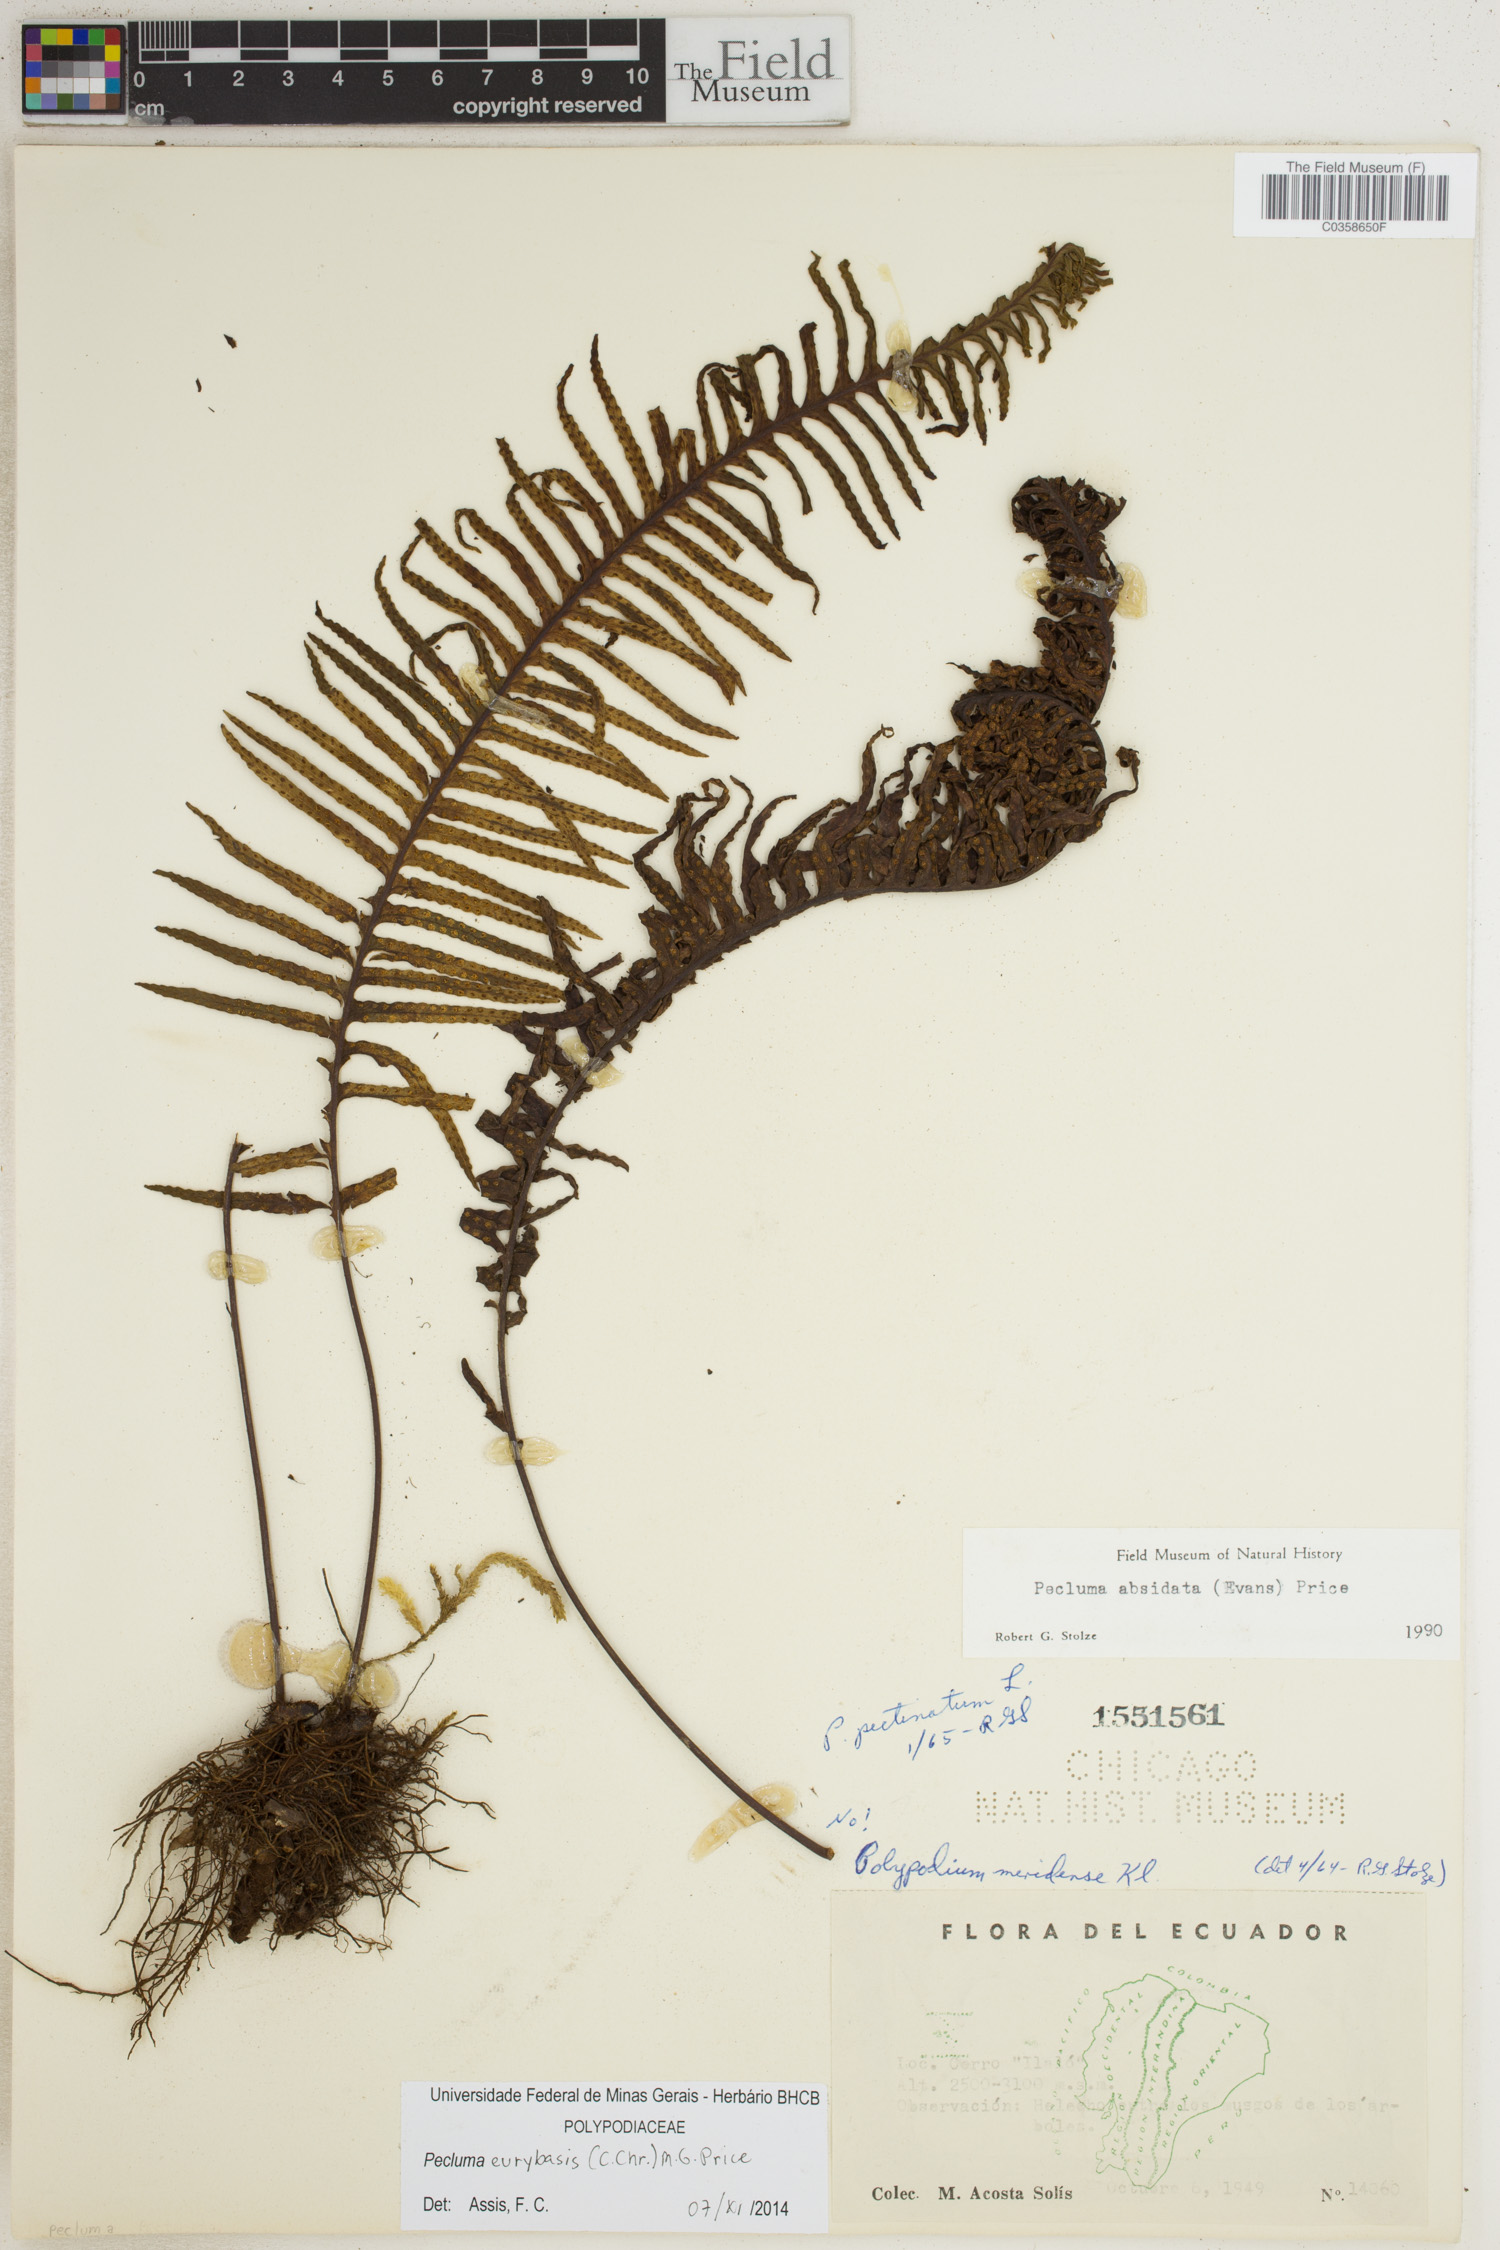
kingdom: Plantae
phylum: Tracheophyta
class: Polypodiopsida
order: Polypodiales
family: Polypodiaceae
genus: Pecluma
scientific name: Pecluma eurybasis
